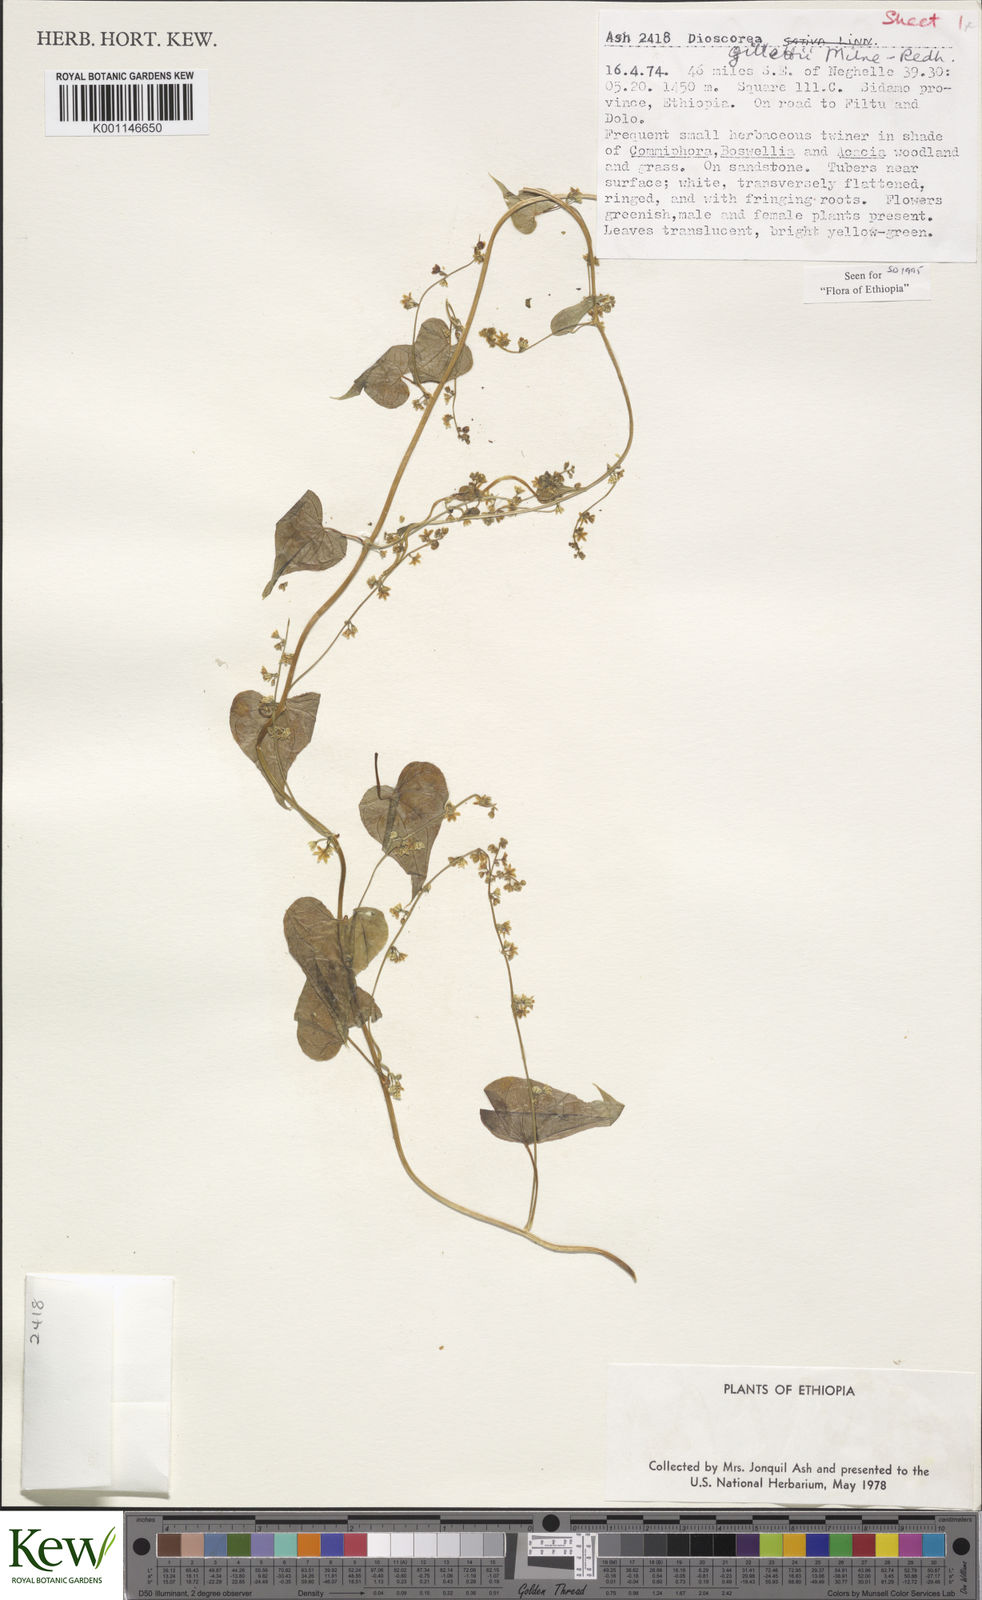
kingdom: Plantae
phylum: Tracheophyta
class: Liliopsida
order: Dioscoreales
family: Dioscoreaceae
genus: Dioscorea
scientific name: Dioscorea gillettii
